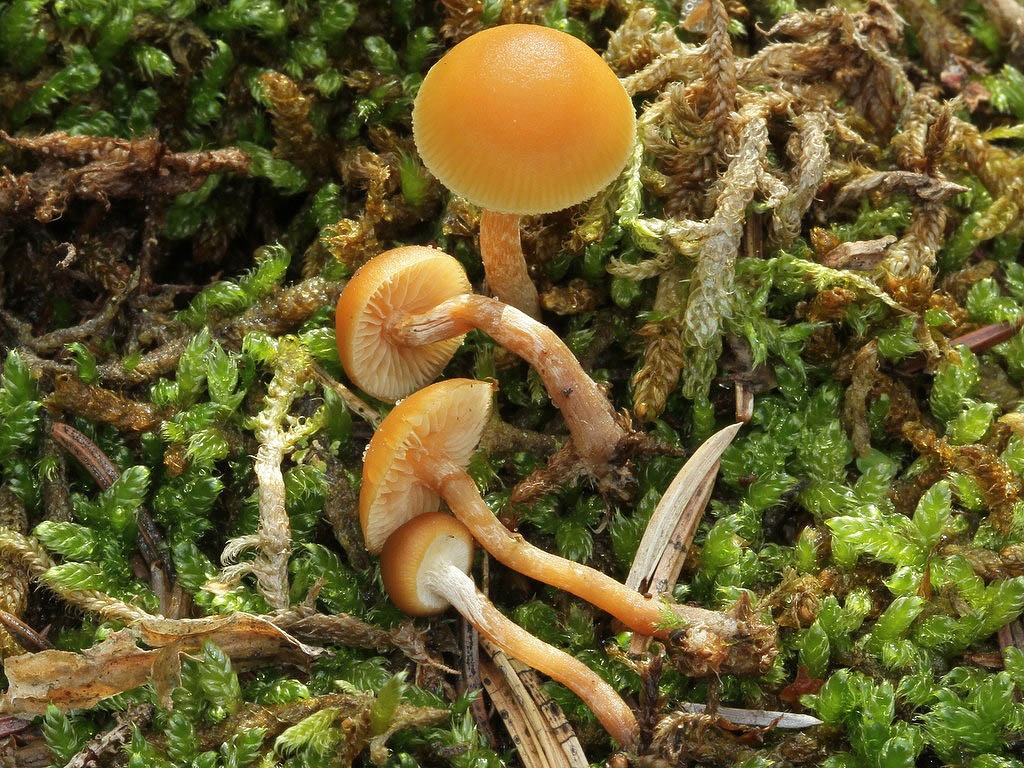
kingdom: Fungi
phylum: Basidiomycota
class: Agaricomycetes
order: Agaricales
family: Hymenogastraceae
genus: Galerina
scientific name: Galerina marginata
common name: randbæltet hjelmhat
